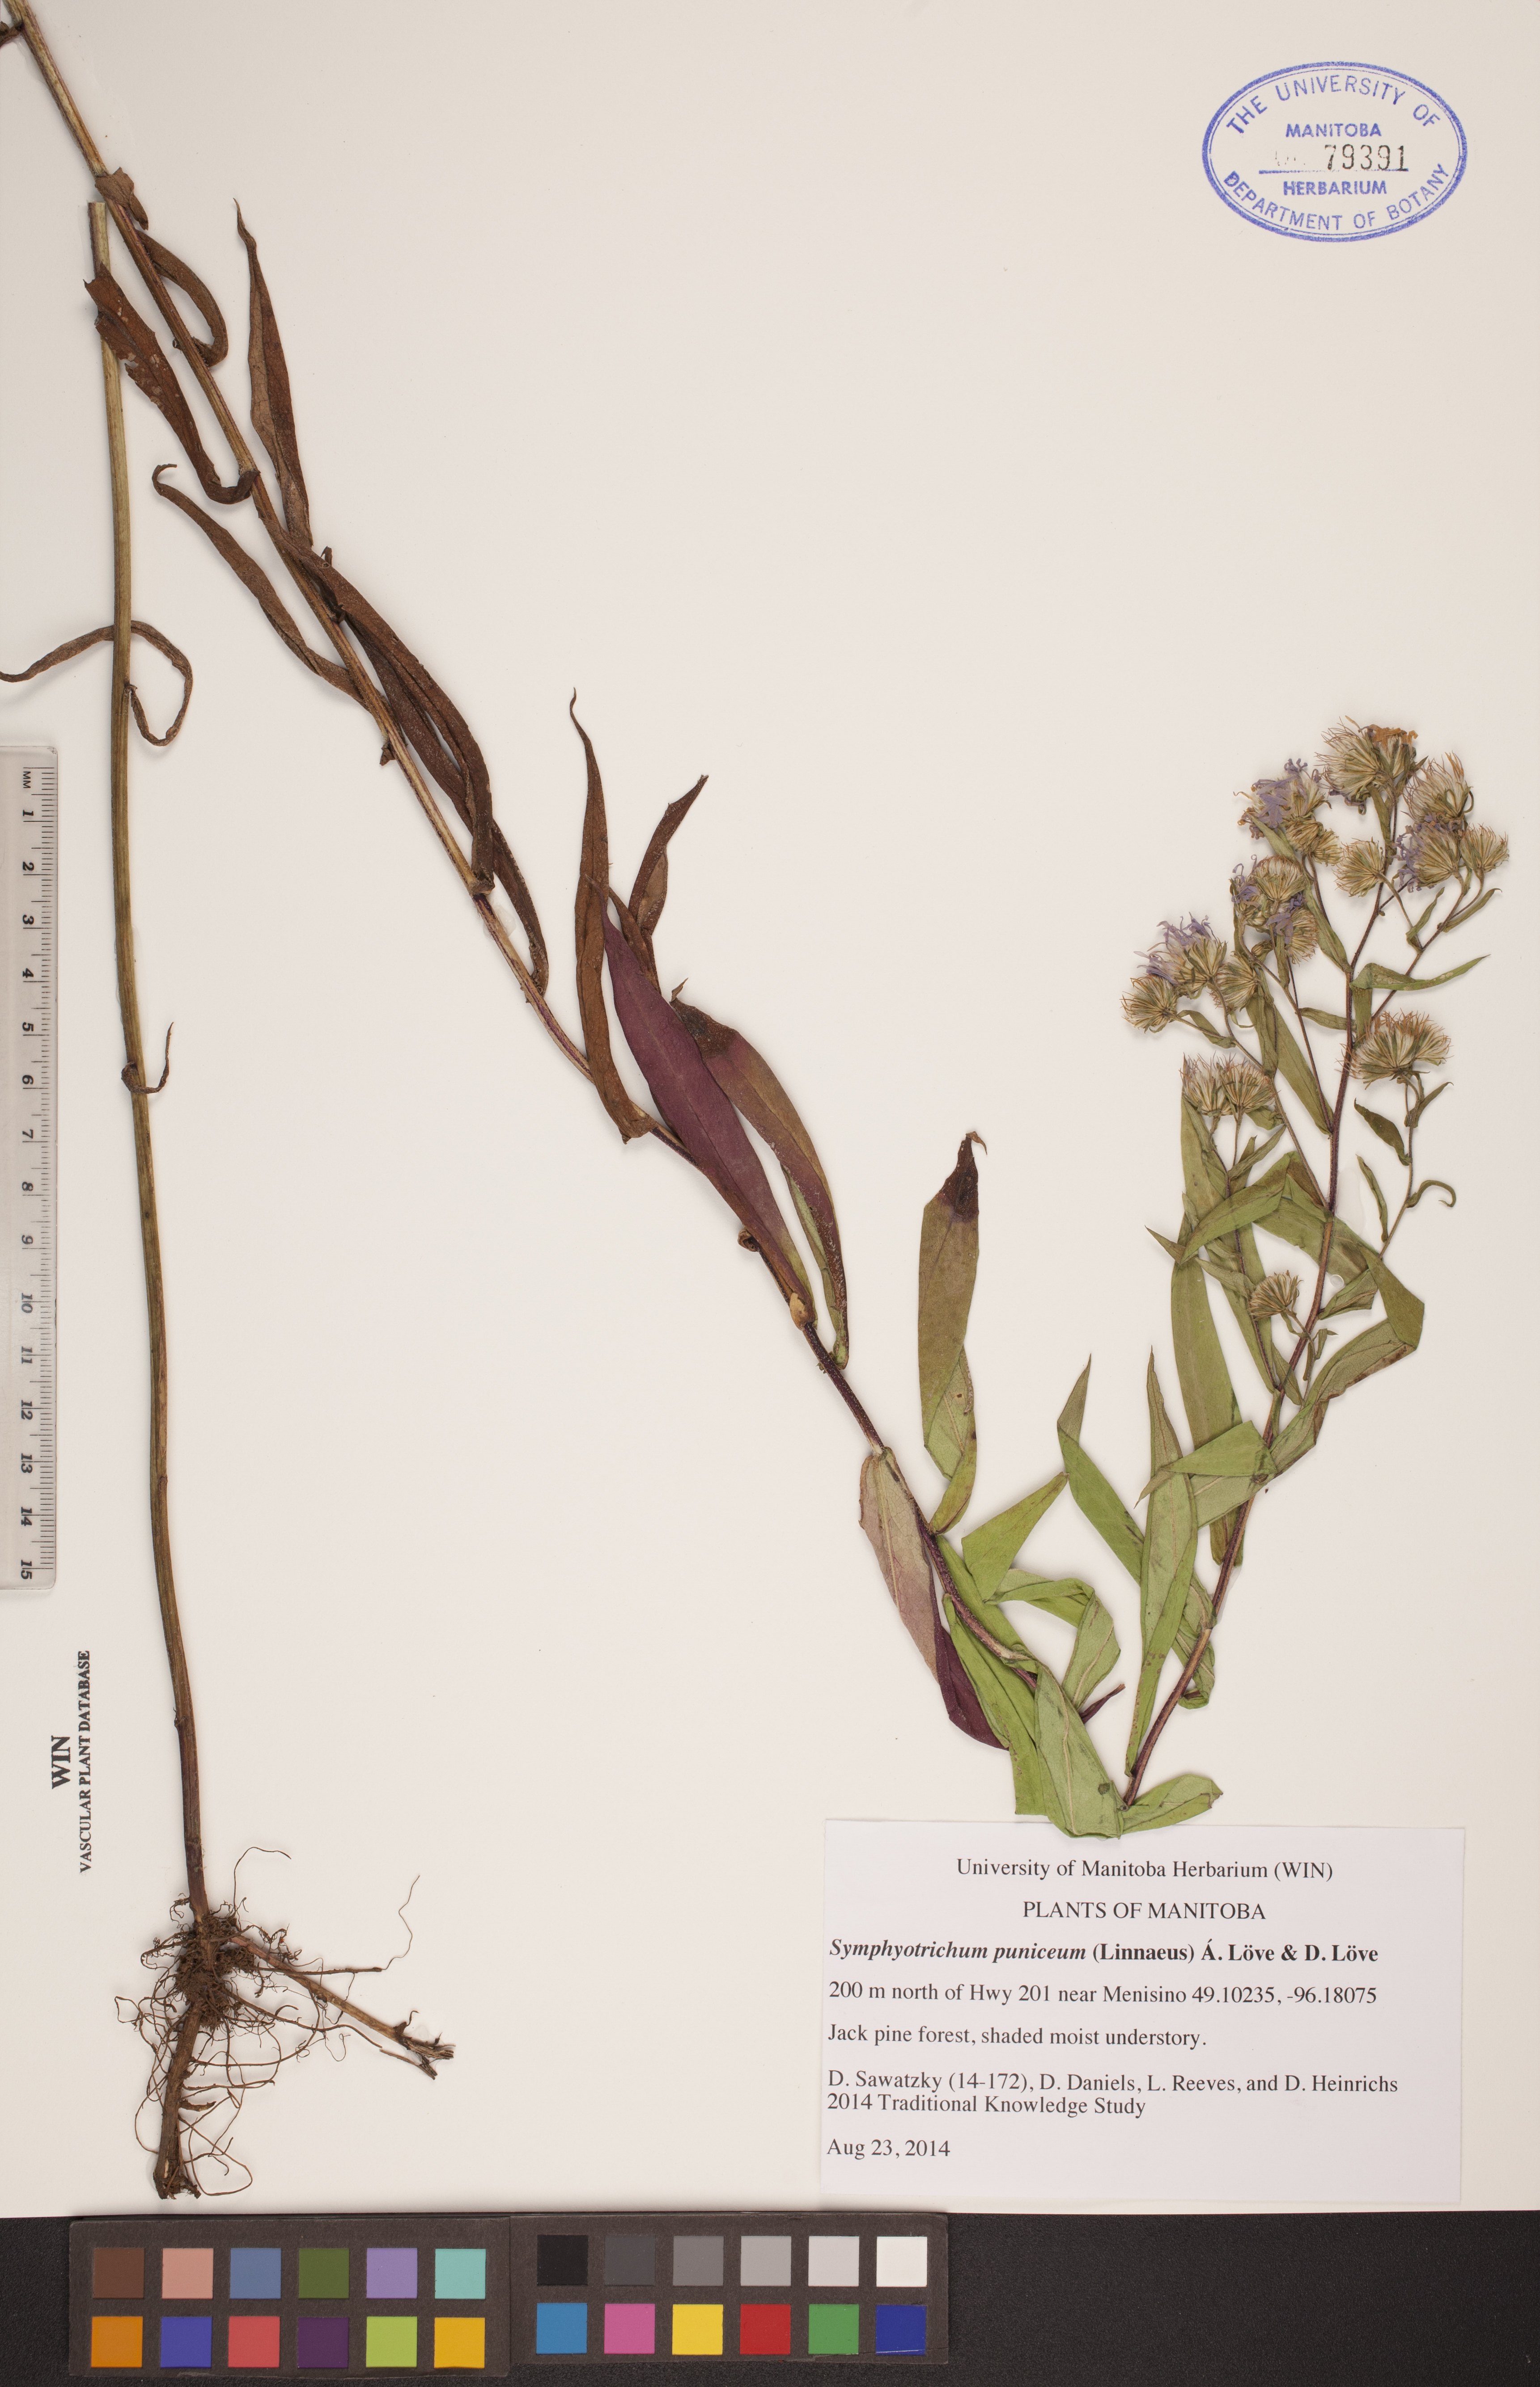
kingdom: Plantae
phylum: Tracheophyta
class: Magnoliopsida
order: Asterales
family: Asteraceae
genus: Symphyotrichum
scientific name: Symphyotrichum puniceum
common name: Bog aster
